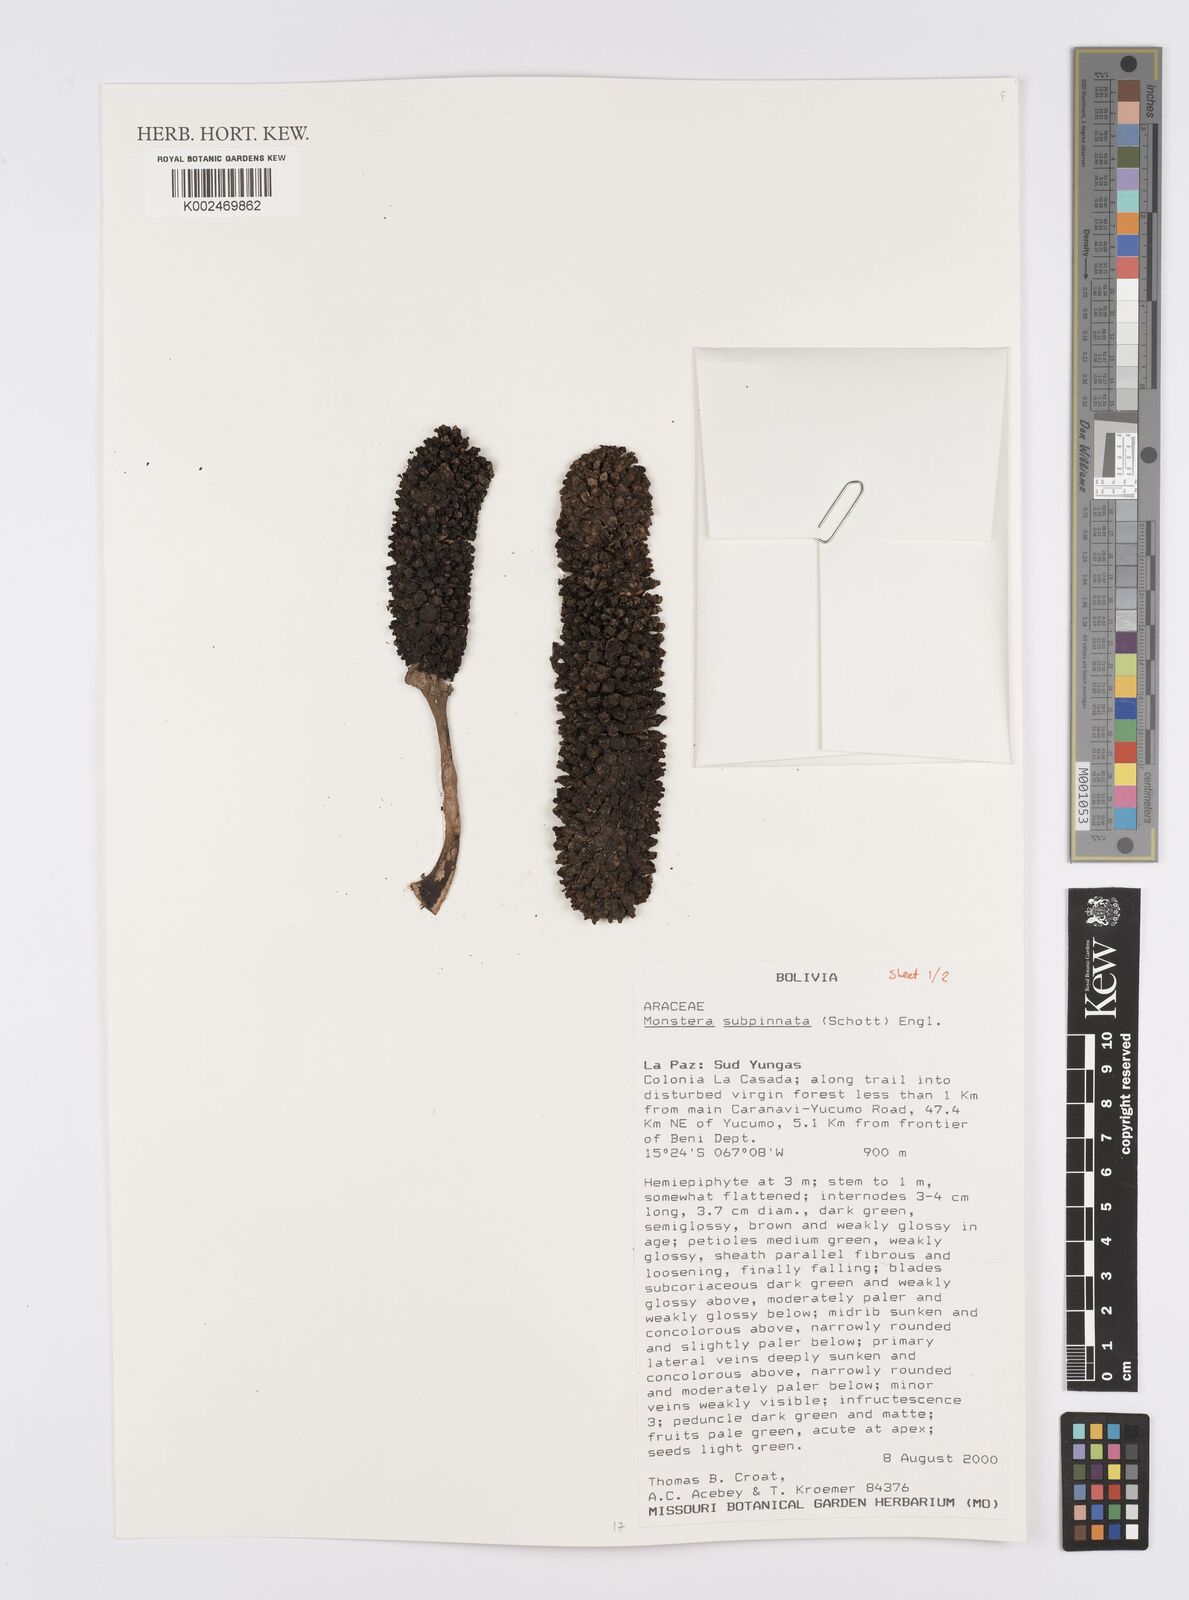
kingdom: Plantae
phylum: Tracheophyta
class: Liliopsida
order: Alismatales
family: Araceae
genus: Monstera
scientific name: Monstera subpinnata
